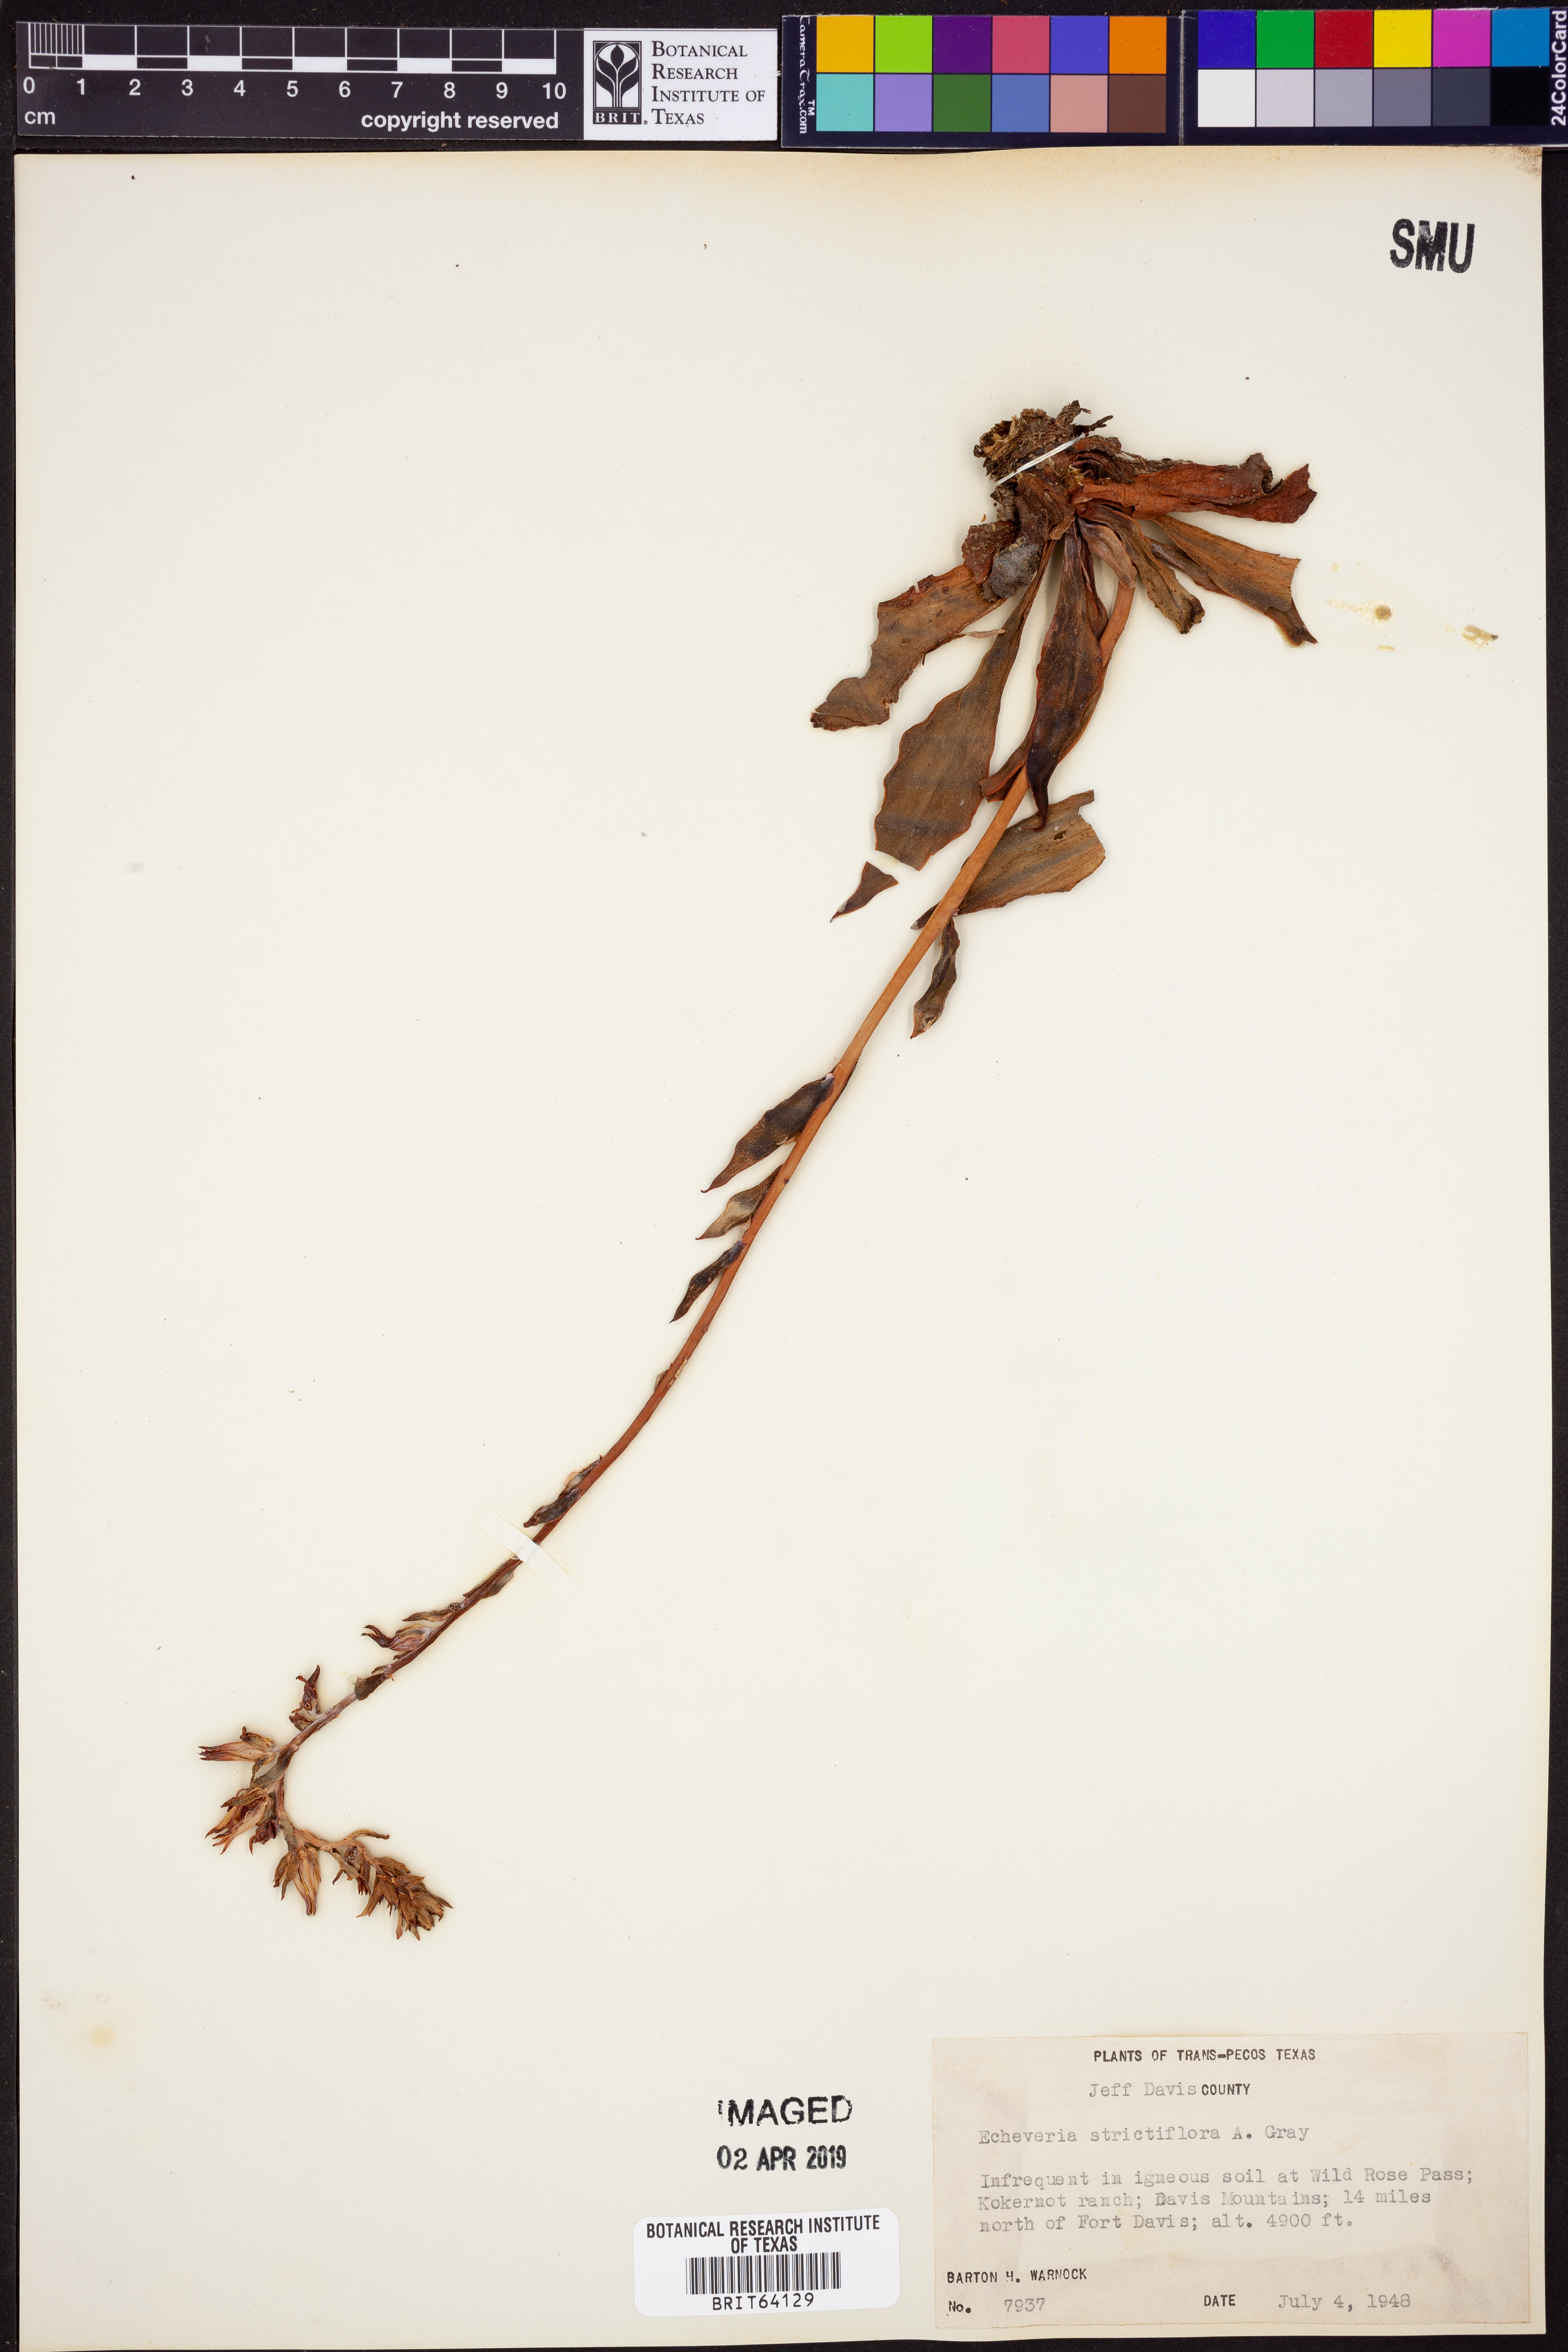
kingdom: Plantae
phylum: Tracheophyta
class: Magnoliopsida
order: Saxifragales
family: Crassulaceae
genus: Echeveria
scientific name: Echeveria strictiflora
